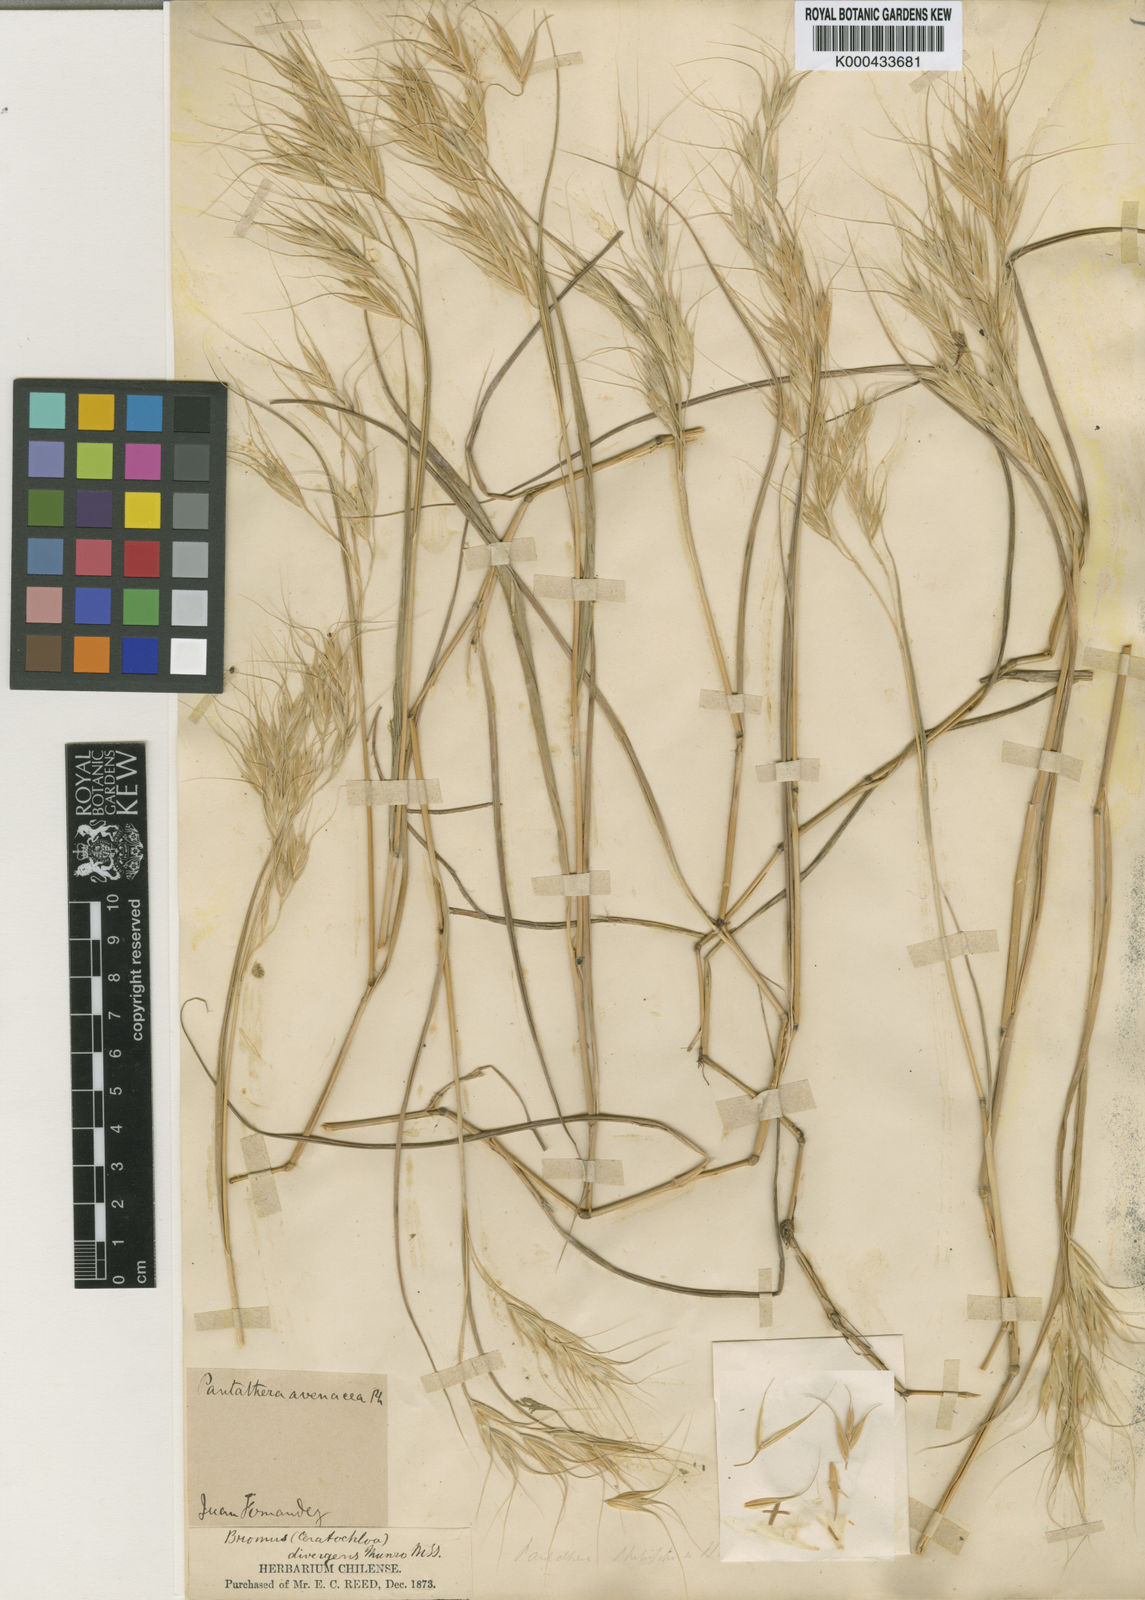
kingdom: Plantae
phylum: Tracheophyta
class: Liliopsida
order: Poales
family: Poaceae
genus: Megalachne
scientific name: Megalachne berteroniana
